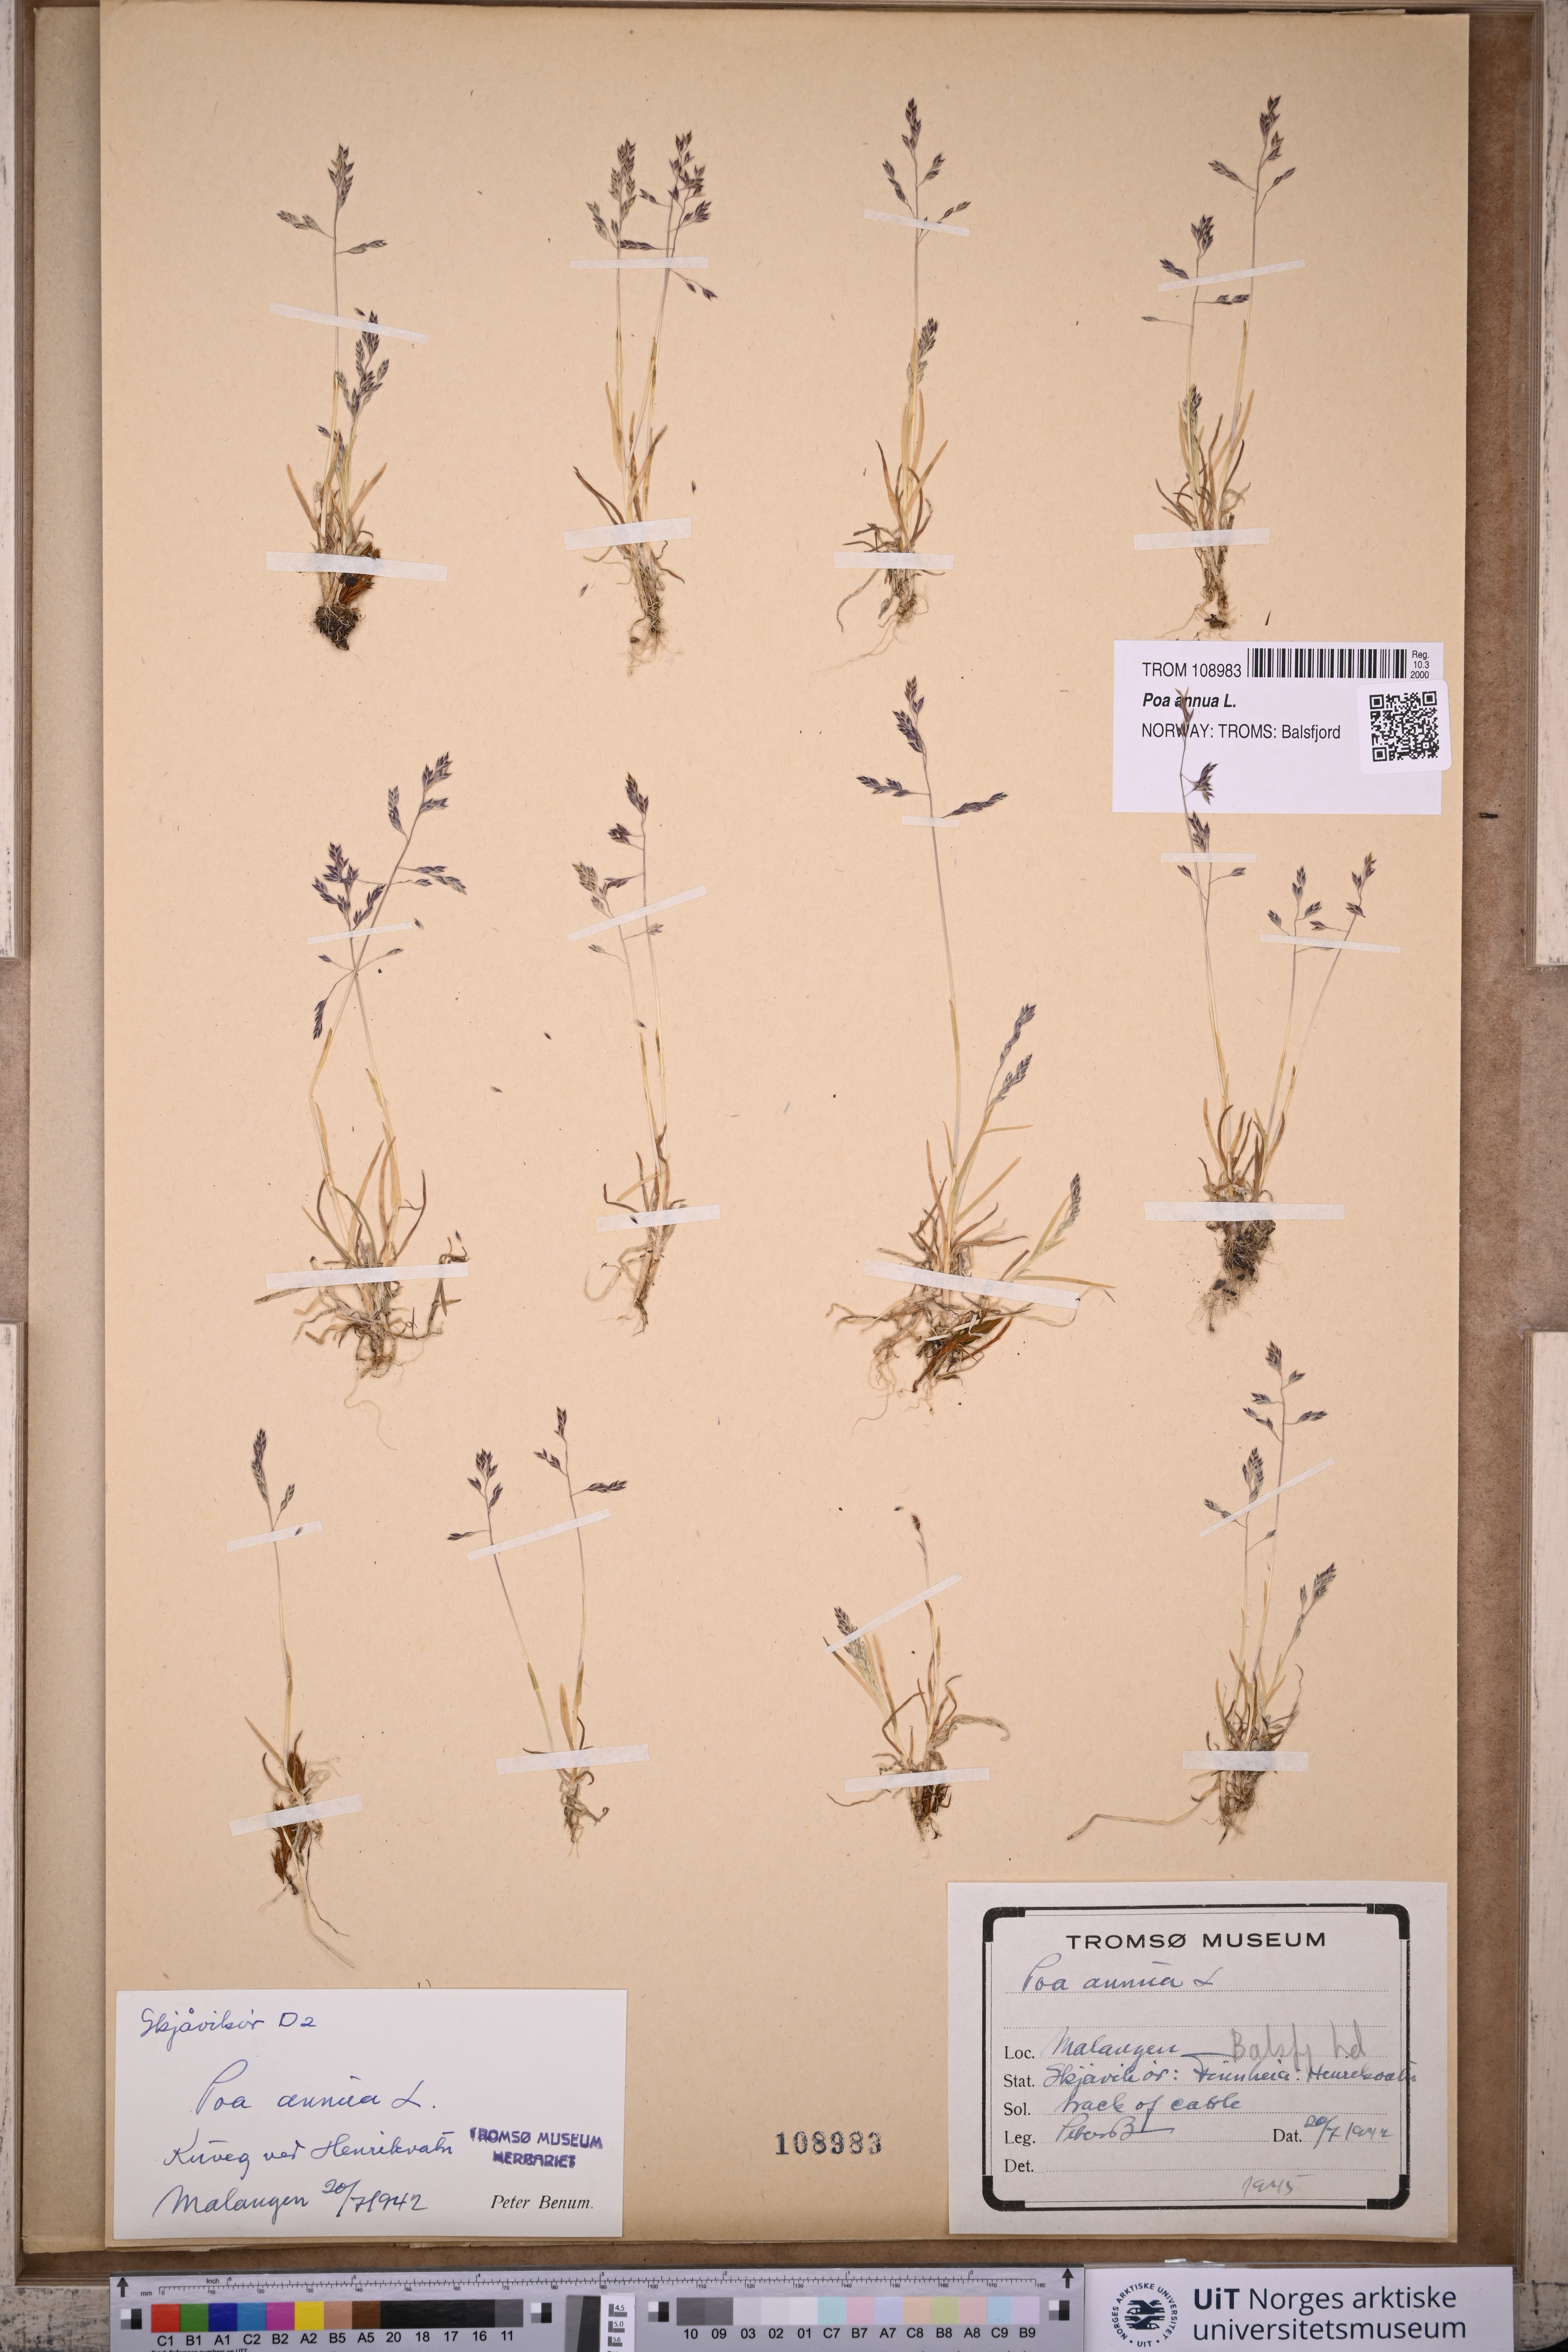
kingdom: Plantae
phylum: Tracheophyta
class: Liliopsida
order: Poales
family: Poaceae
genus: Poa
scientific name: Poa annua
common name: Annual bluegrass
